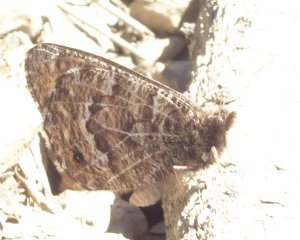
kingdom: Animalia
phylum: Arthropoda
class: Insecta
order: Lepidoptera
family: Lycaenidae
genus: Lycaena
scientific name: Lycaena editha
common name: Edith's Copper
